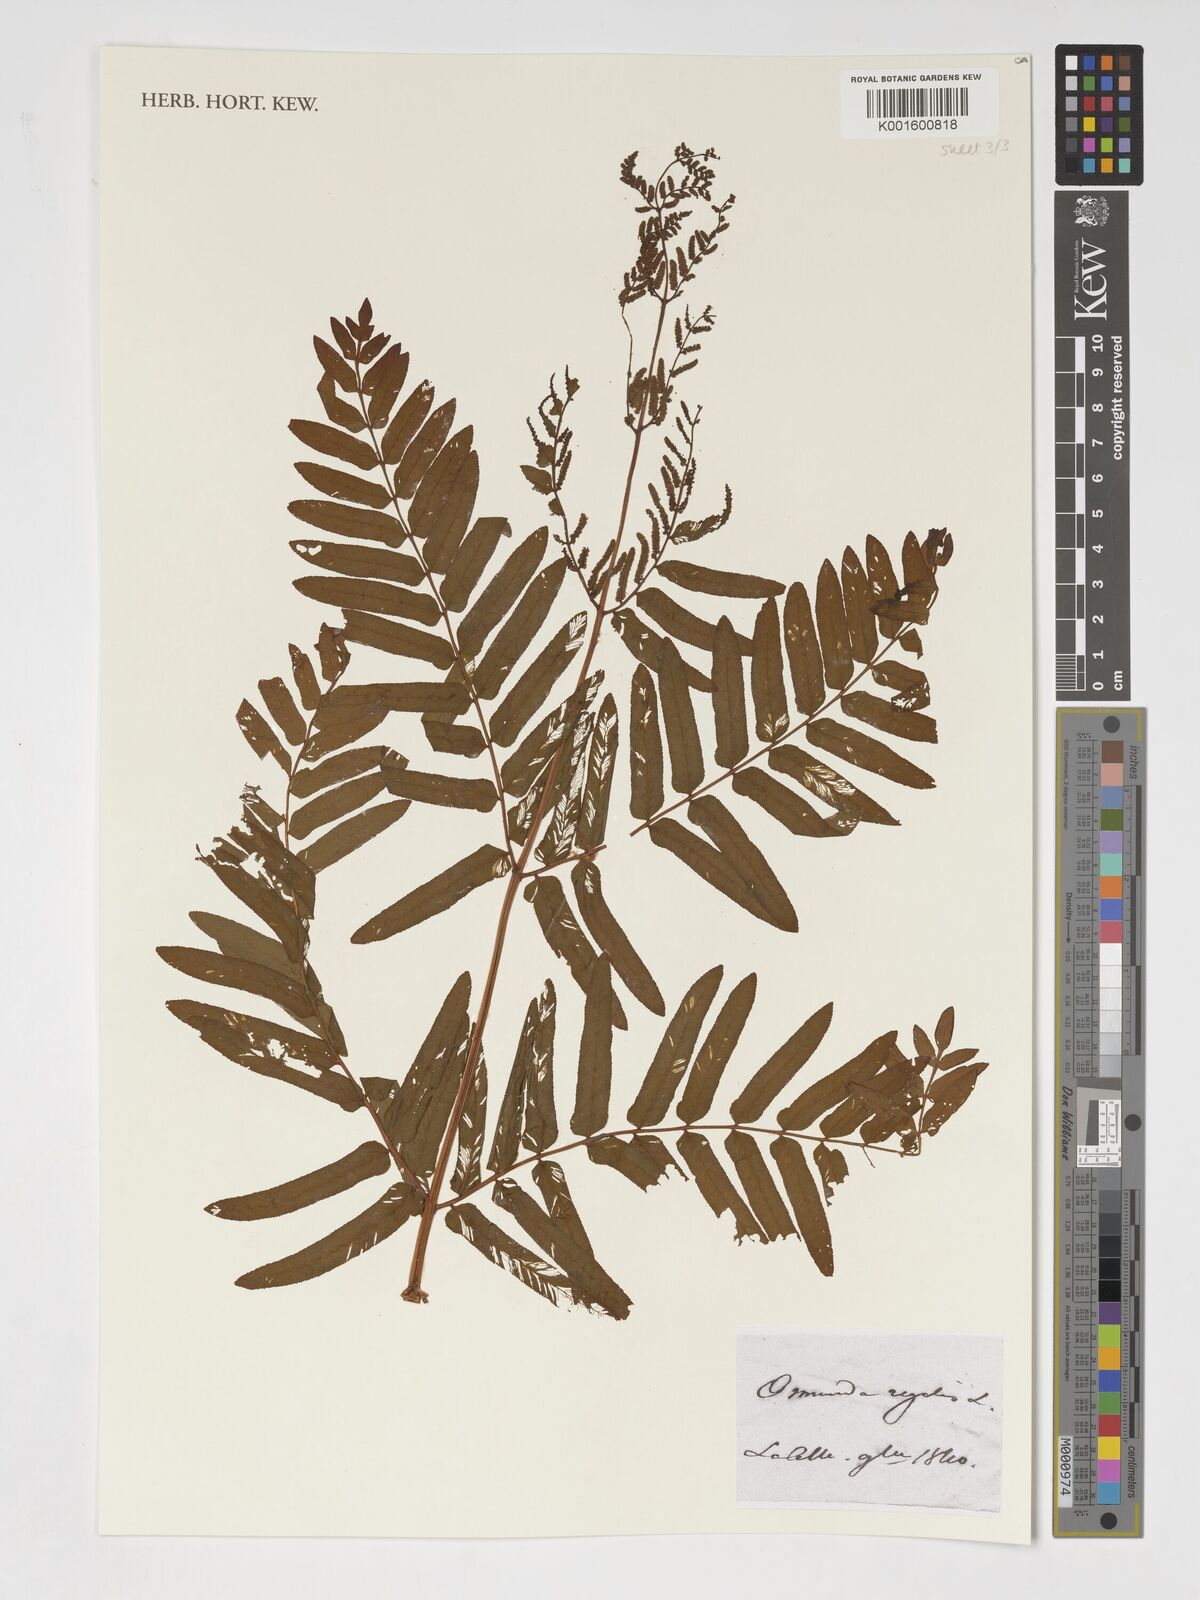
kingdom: Plantae
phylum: Tracheophyta
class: Polypodiopsida
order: Osmundales
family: Osmundaceae
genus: Osmunda
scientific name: Osmunda regalis
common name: Royal fern
